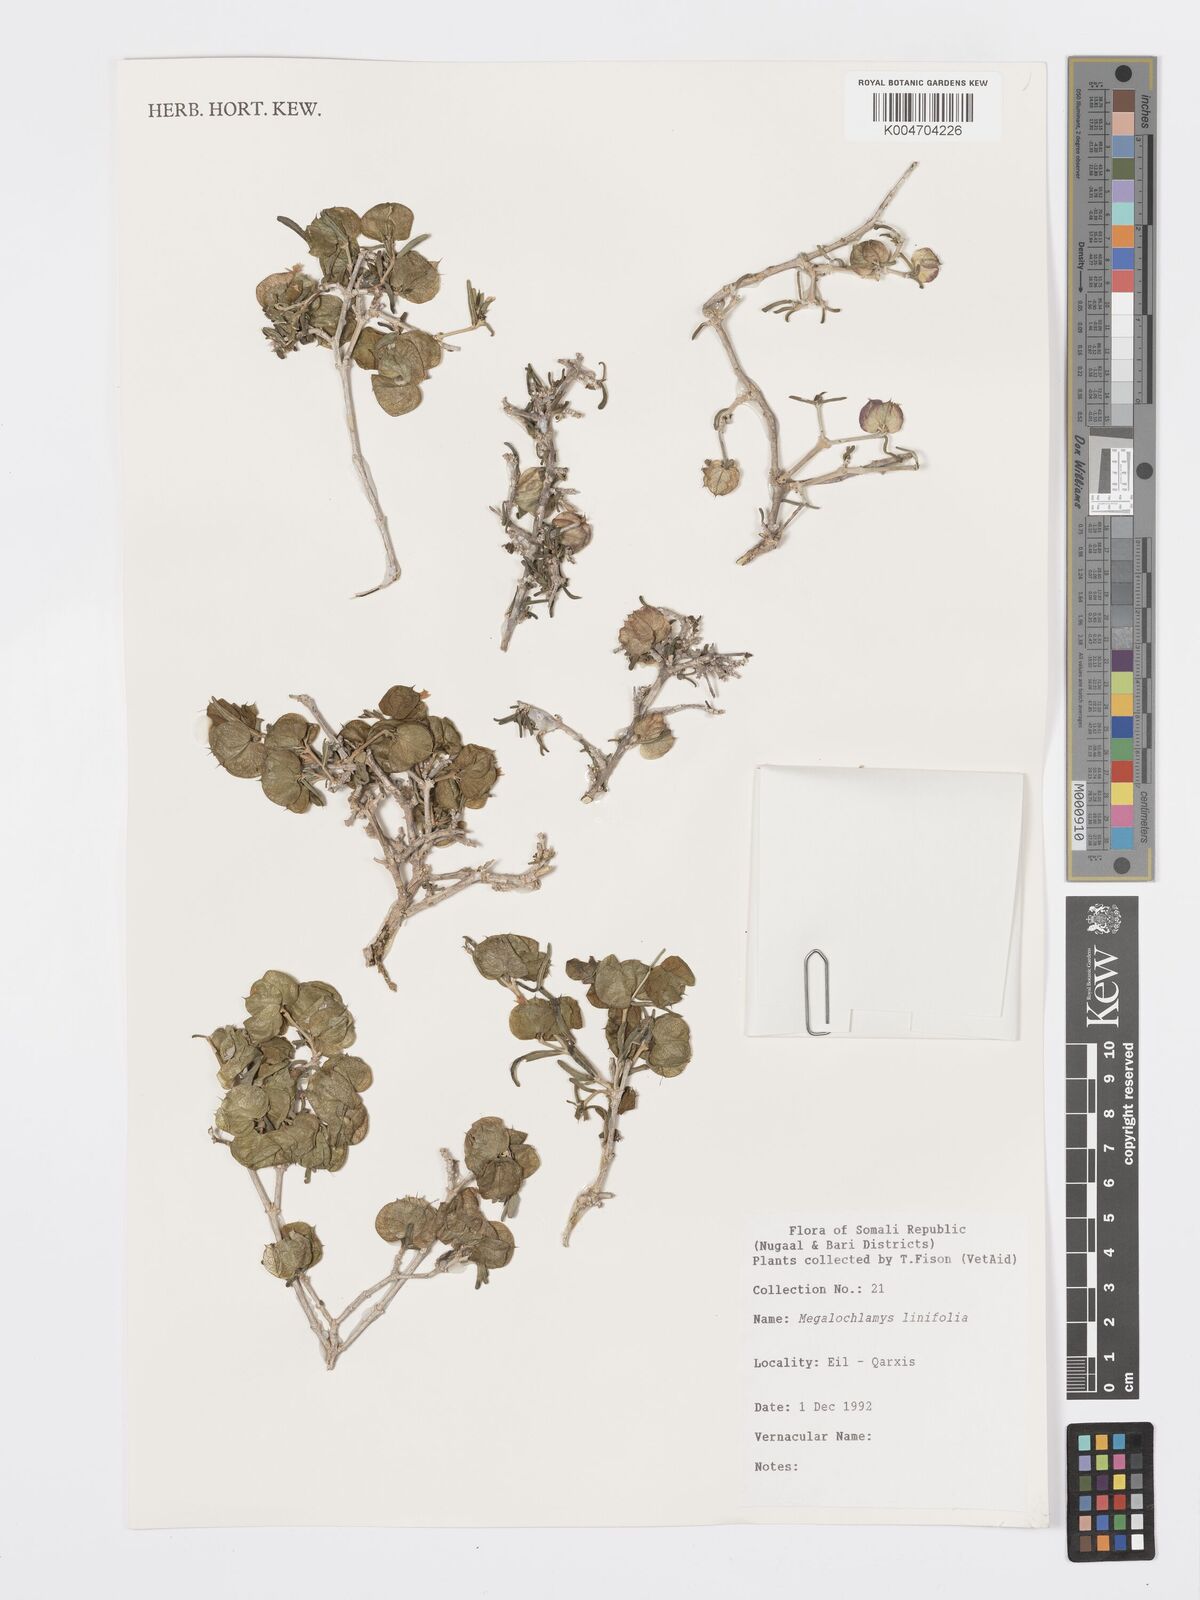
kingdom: Plantae
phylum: Tracheophyta
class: Magnoliopsida
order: Lamiales
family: Acanthaceae
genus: Megalochlamys
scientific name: Megalochlamys linifolia
